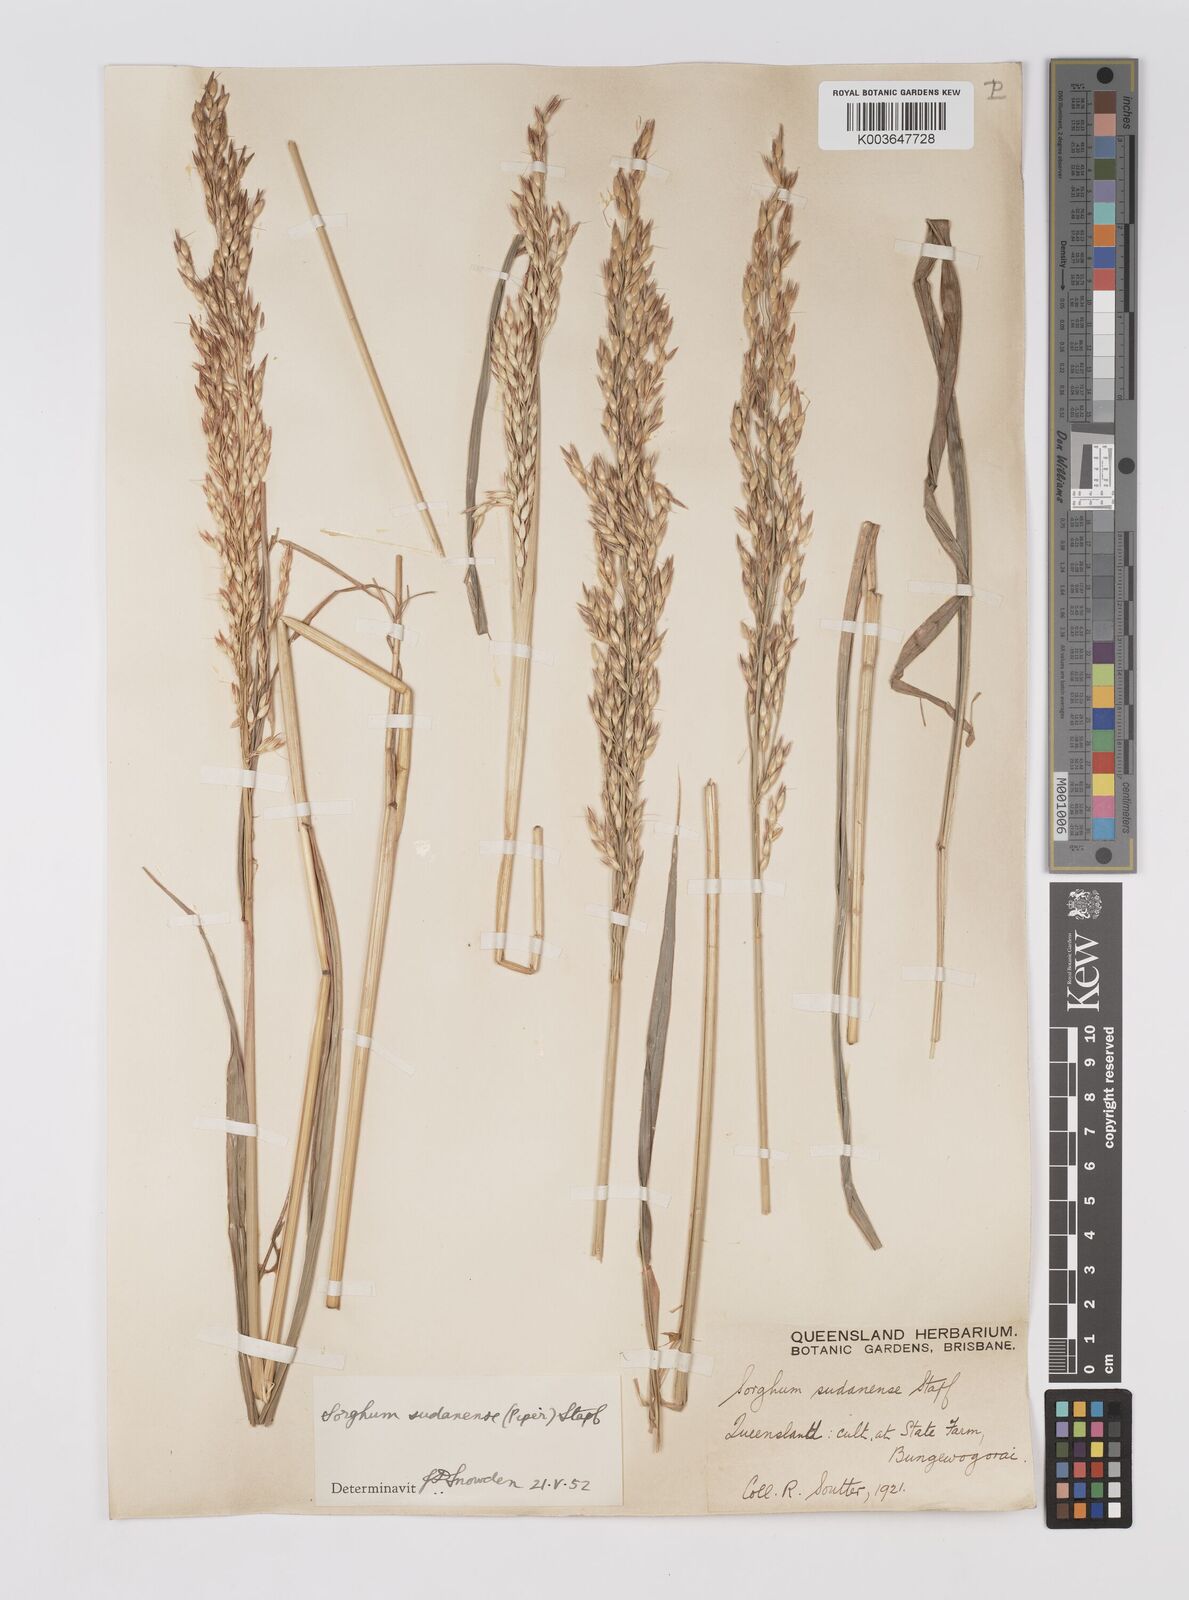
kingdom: Plantae
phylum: Tracheophyta
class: Liliopsida
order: Poales
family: Poaceae
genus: Sorghum
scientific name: Sorghum drummondii
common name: Sudangrass
